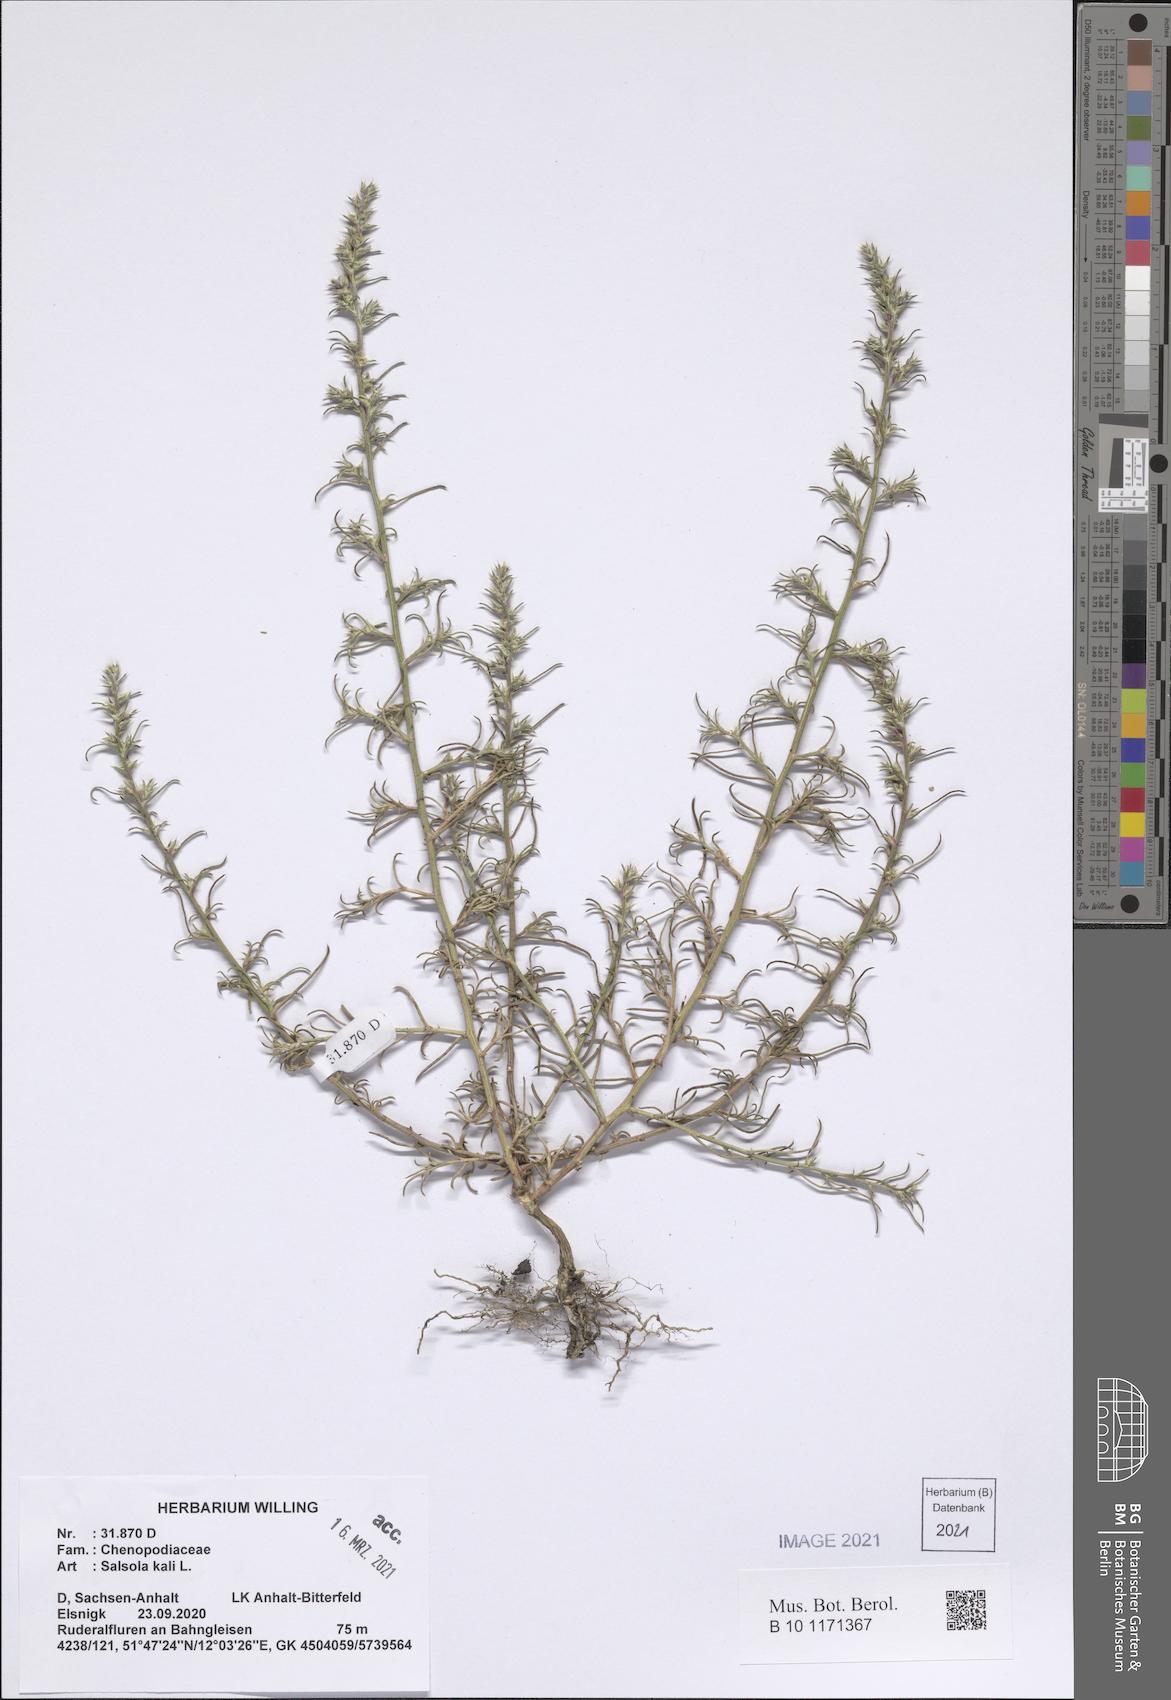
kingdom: Plantae
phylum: Tracheophyta
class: Magnoliopsida
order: Caryophyllales
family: Amaranthaceae
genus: Salsola
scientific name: Salsola kali
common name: Saltwort
